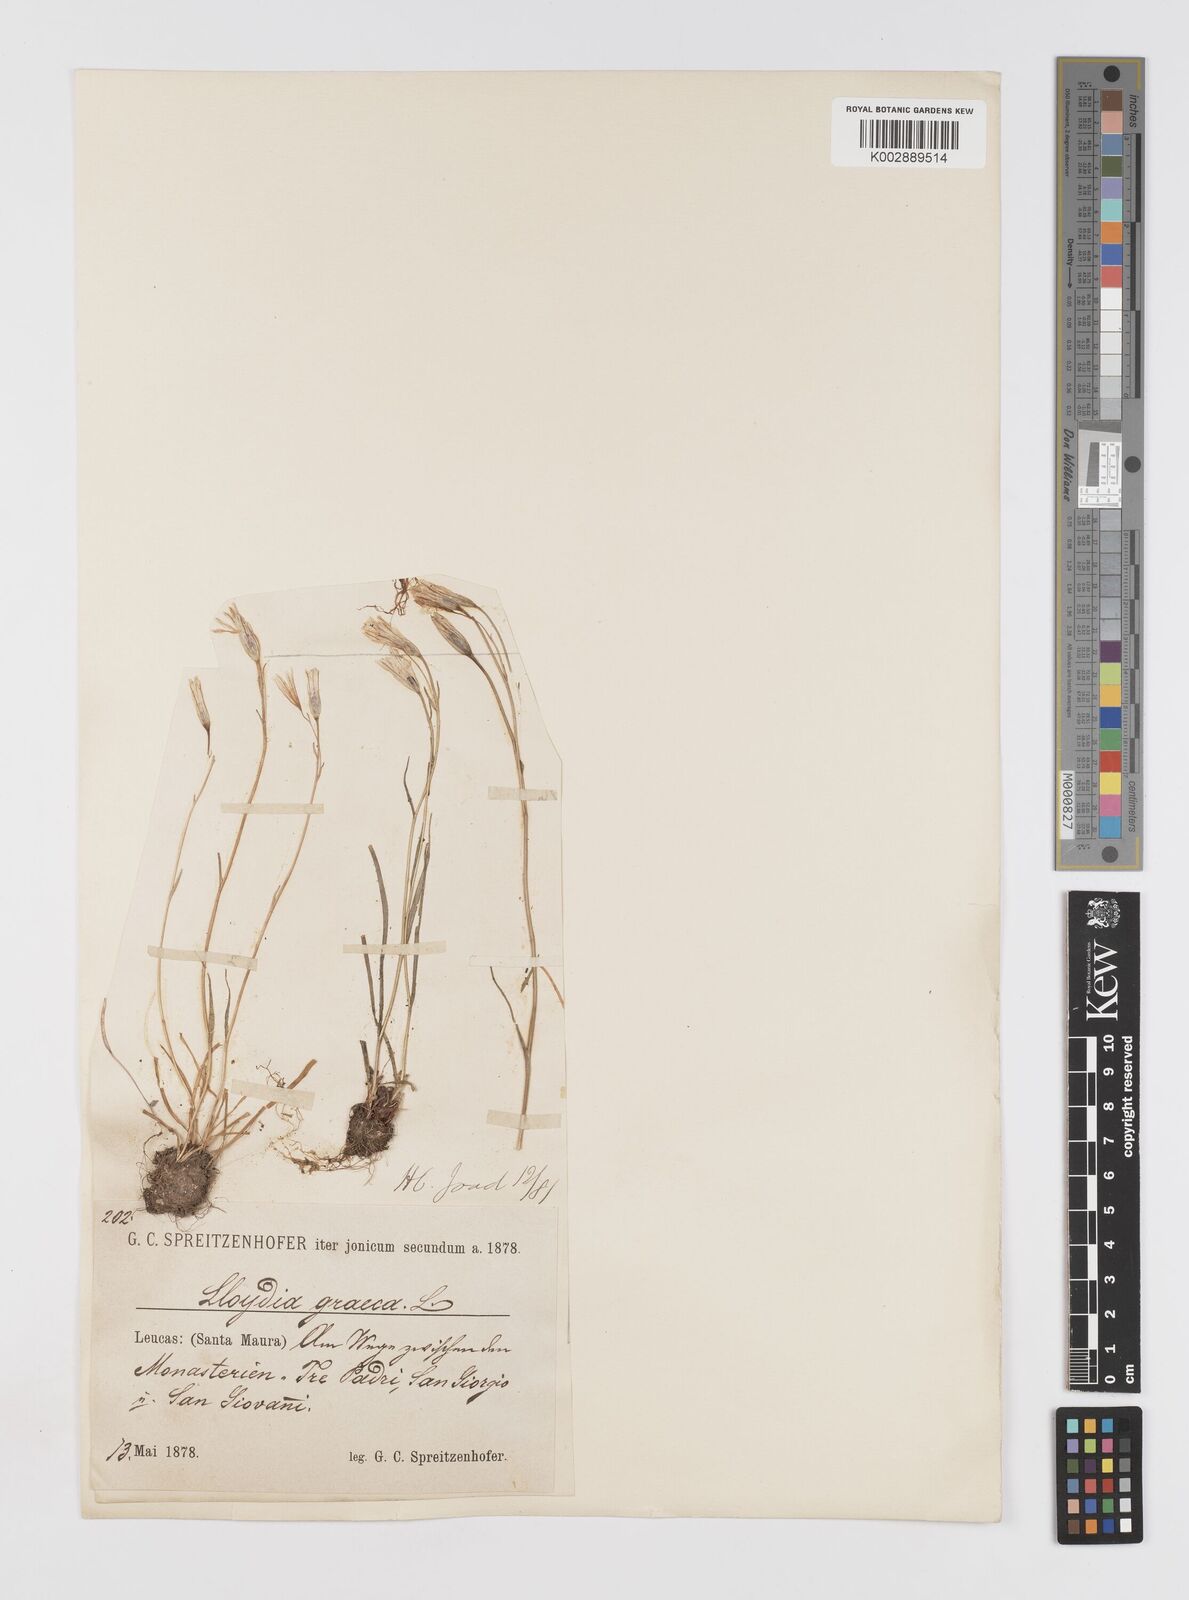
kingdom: Plantae
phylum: Tracheophyta
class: Liliopsida
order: Liliales
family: Liliaceae
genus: Gagea
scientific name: Gagea graeca
